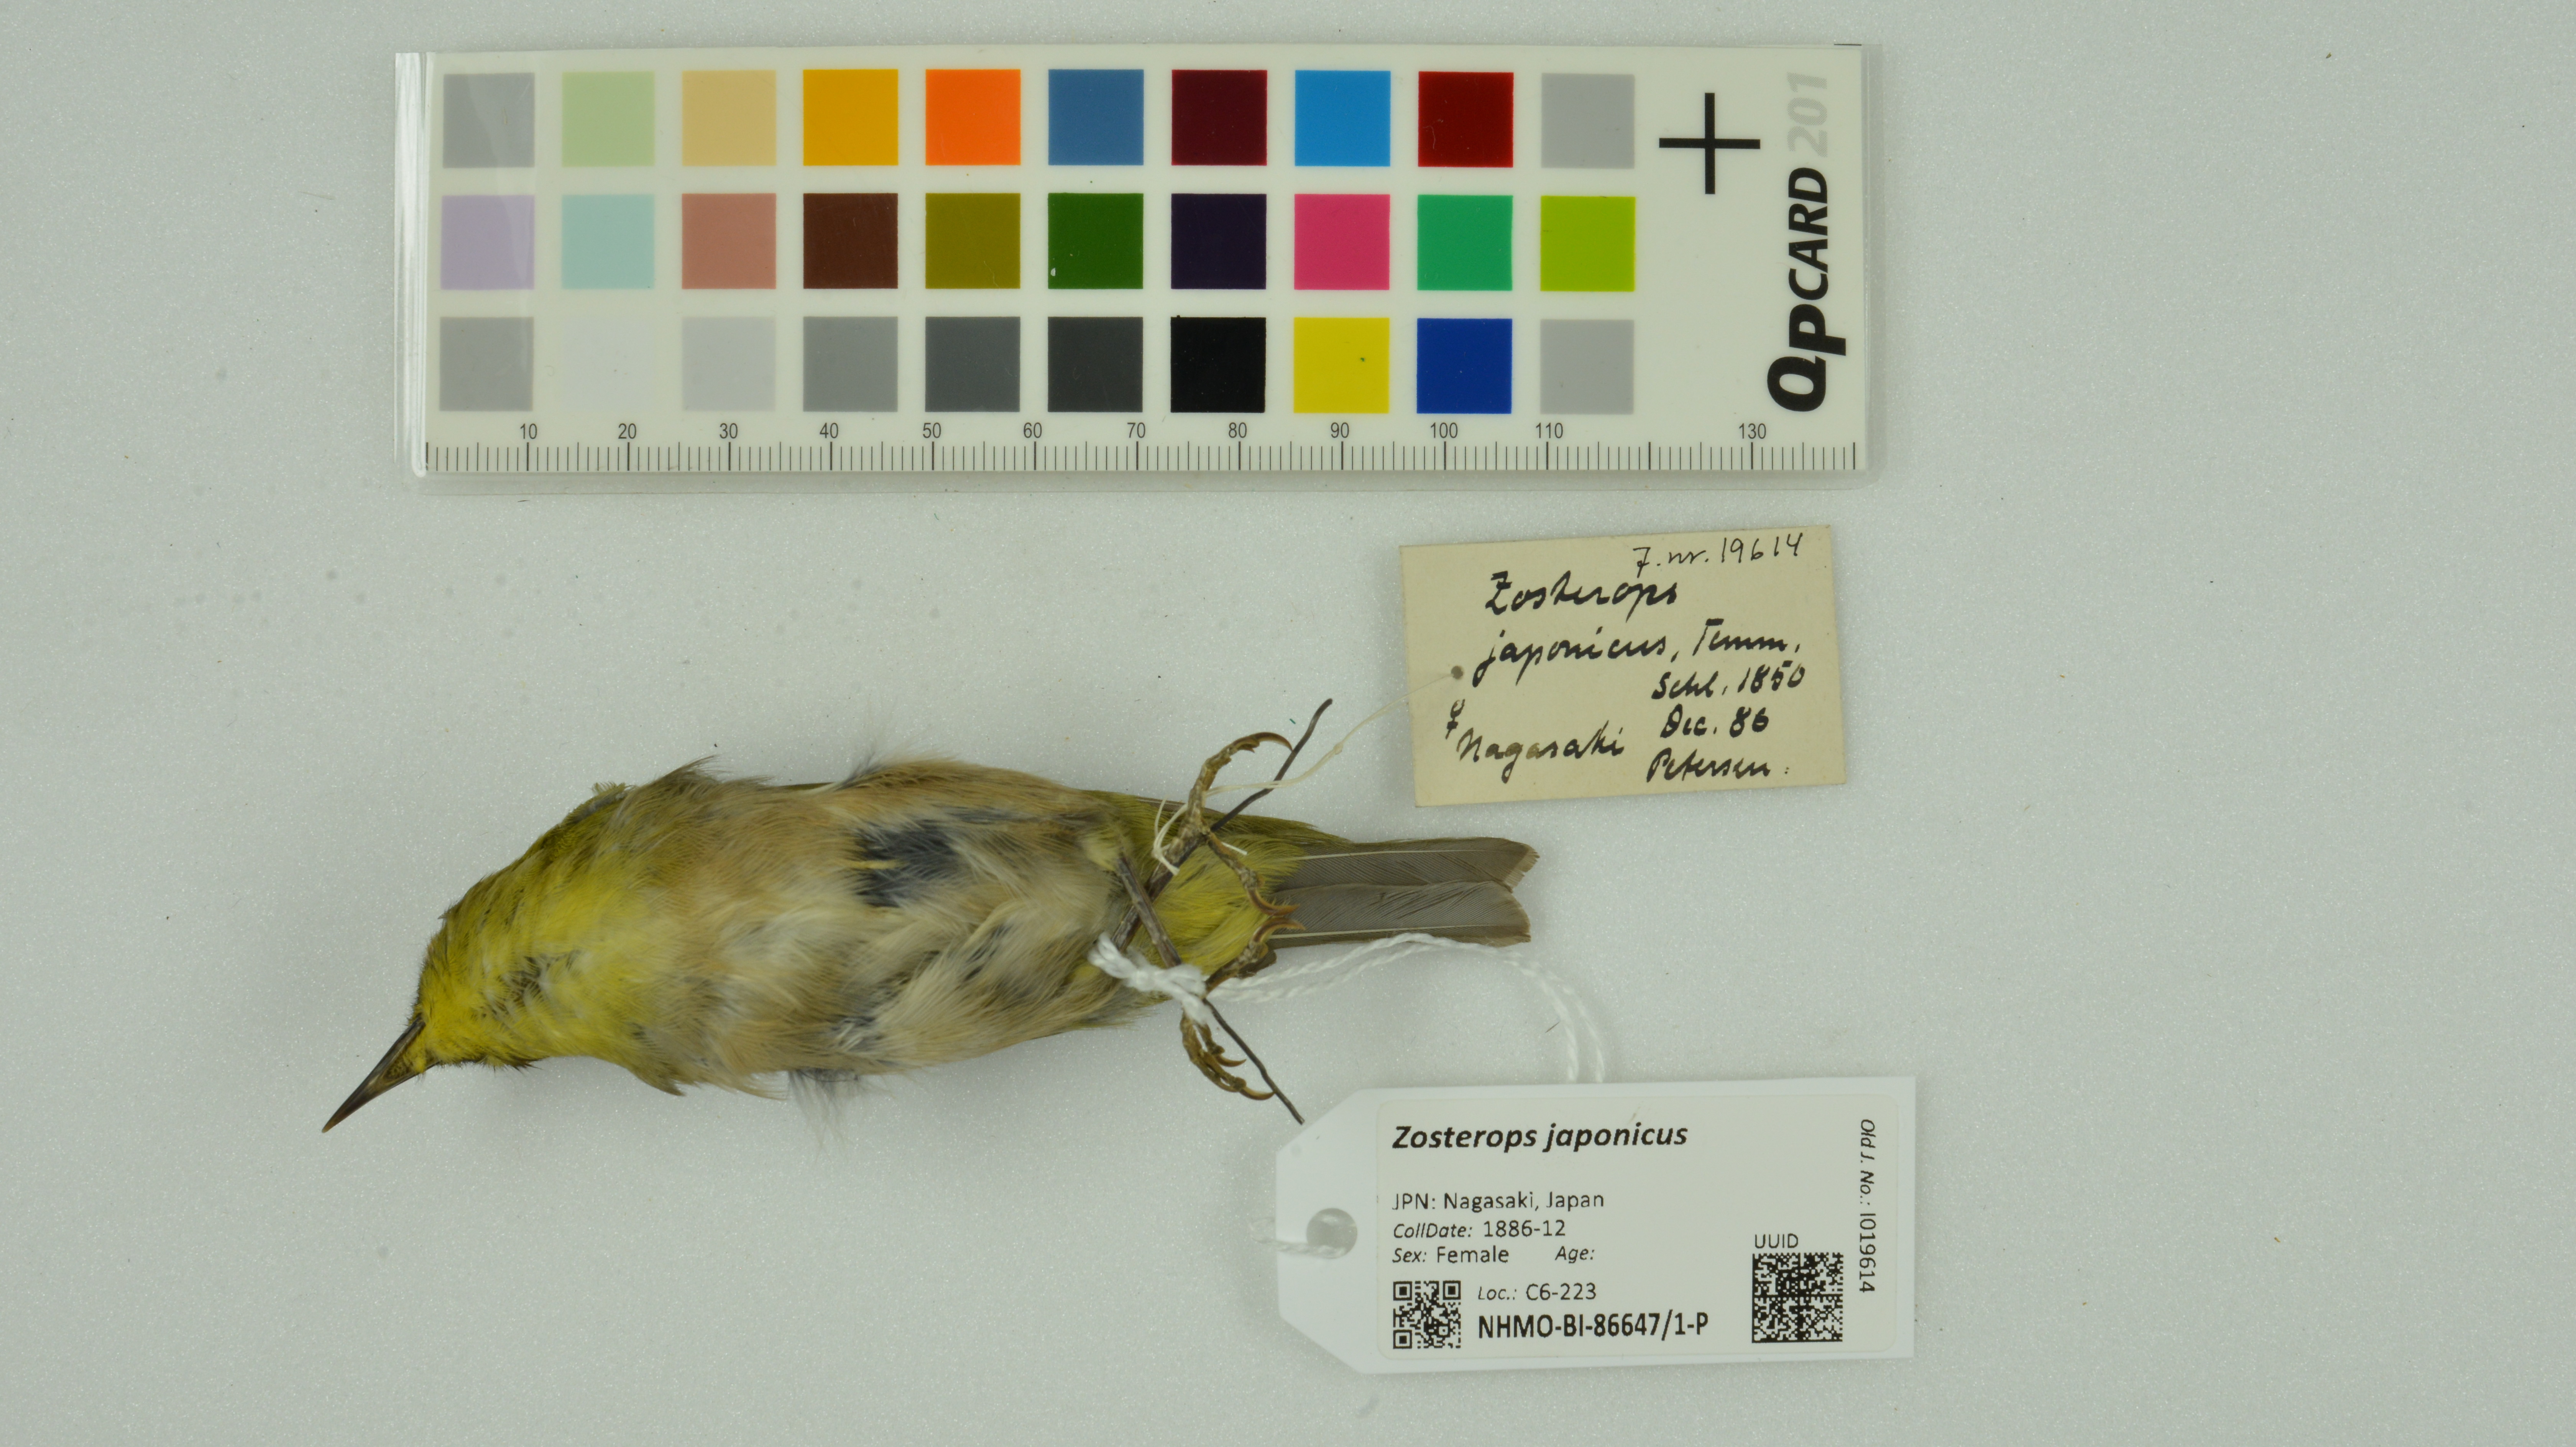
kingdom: Animalia
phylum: Chordata
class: Aves
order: Passeriformes
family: Zosteropidae
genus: Zosterops
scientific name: Zosterops japonicus
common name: Japanese white-eye
